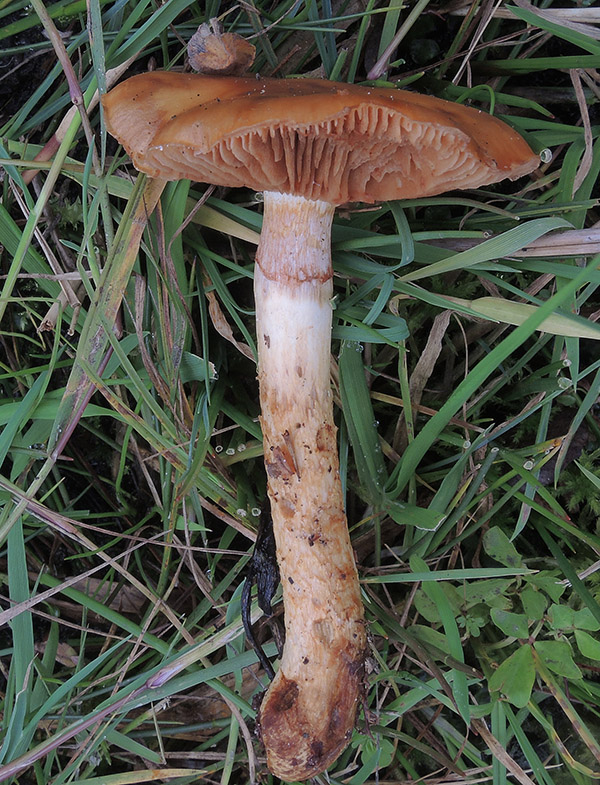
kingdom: Fungi
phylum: Basidiomycota
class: Agaricomycetes
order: Agaricales
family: Cortinariaceae
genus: Cortinarius
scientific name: Cortinarius trivialis
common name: brunslimet slørhat
